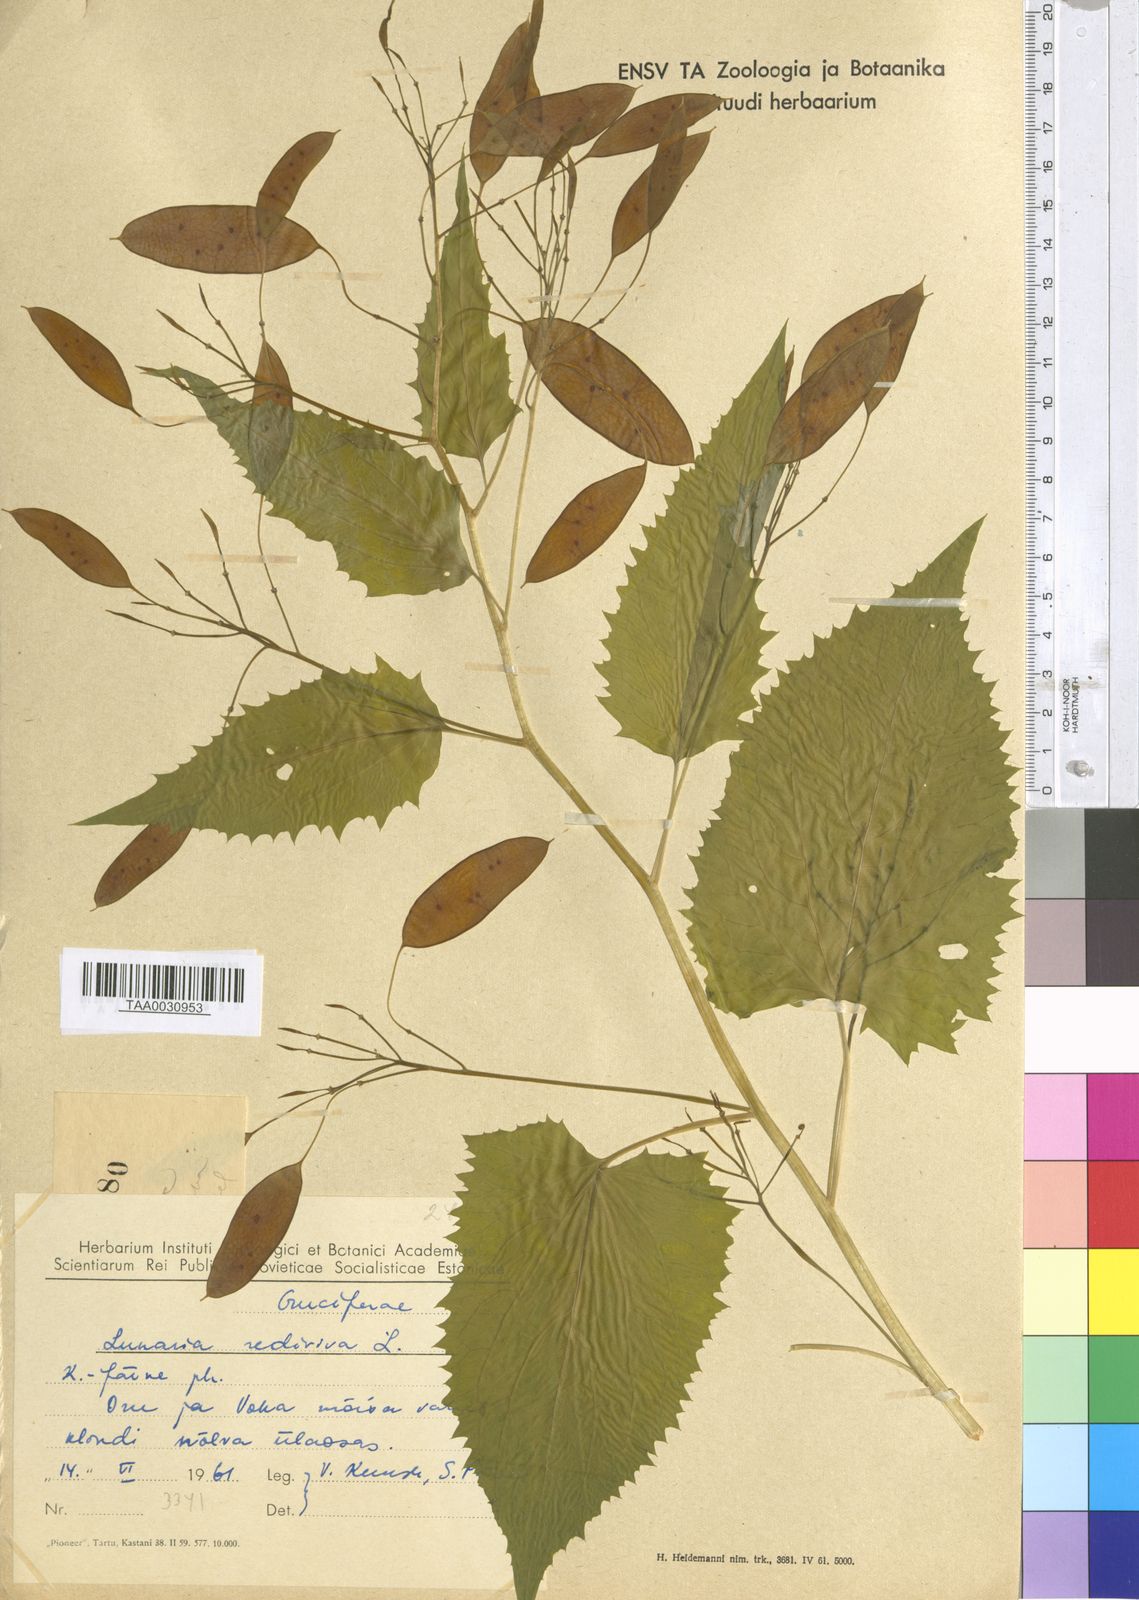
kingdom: Plantae
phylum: Tracheophyta
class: Magnoliopsida
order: Brassicales
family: Brassicaceae
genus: Lunaria
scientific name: Lunaria rediviva
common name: Perennial honesty
